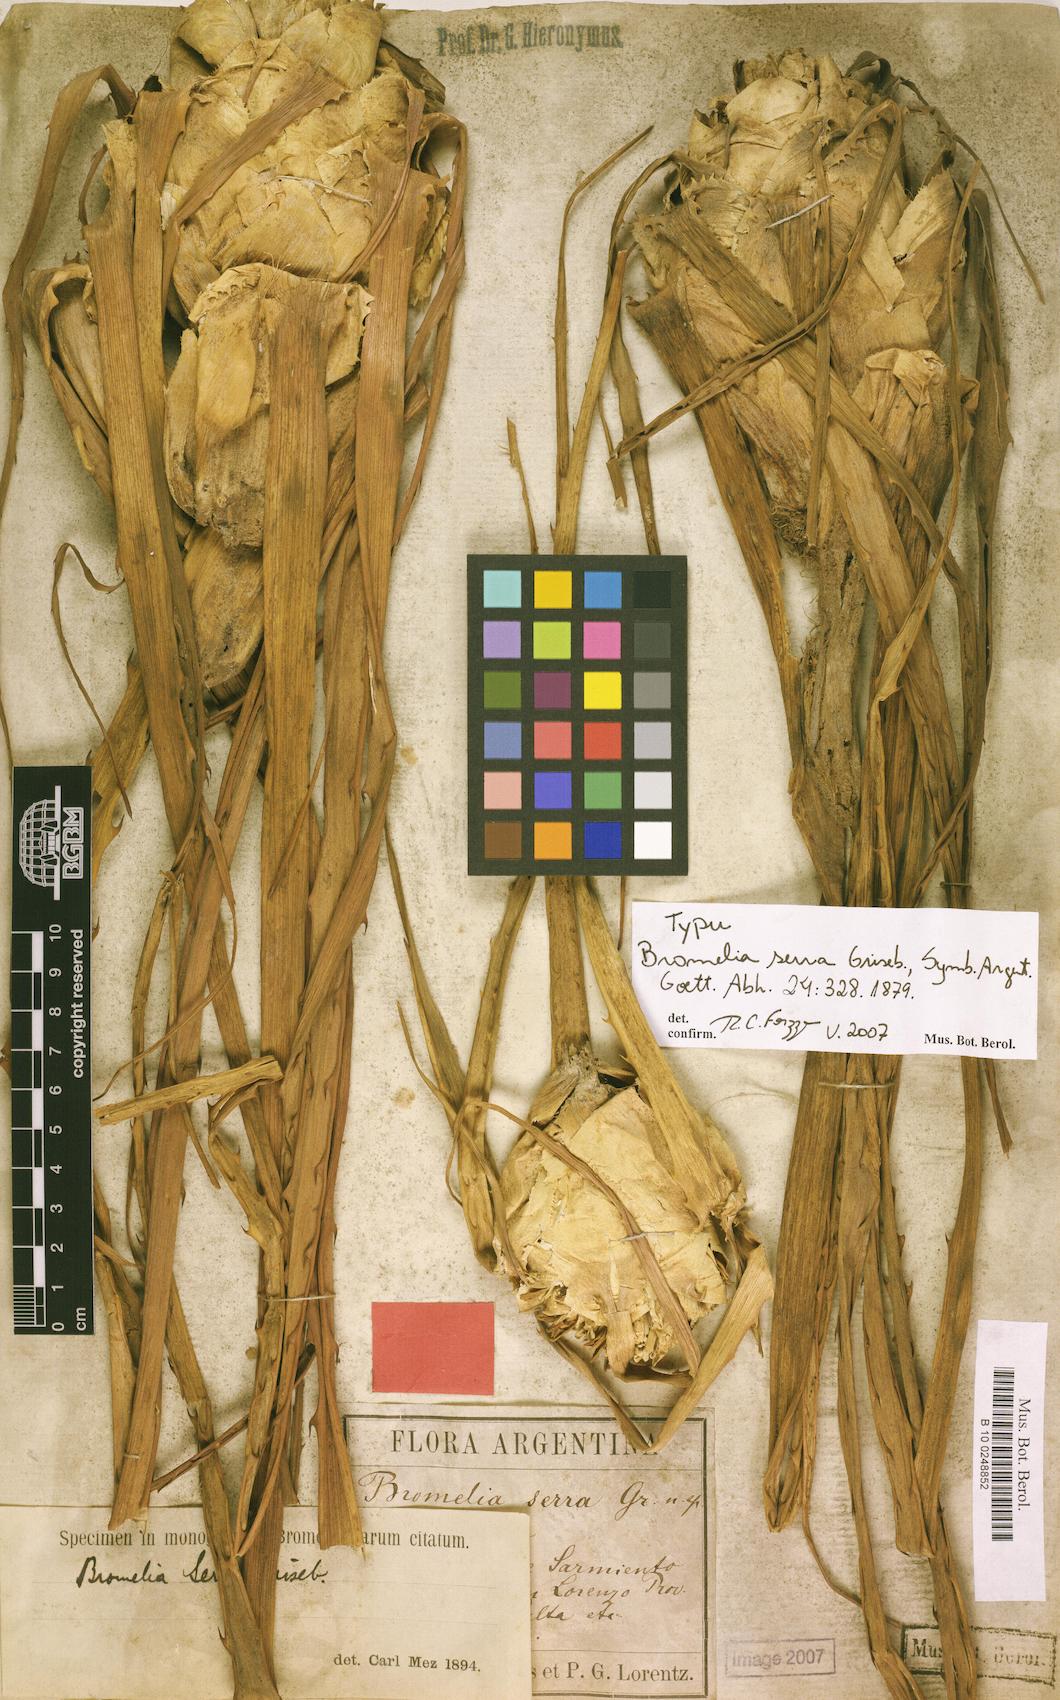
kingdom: Plantae
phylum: Tracheophyta
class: Liliopsida
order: Poales
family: Bromeliaceae
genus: Bromelia
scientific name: Bromelia serra
